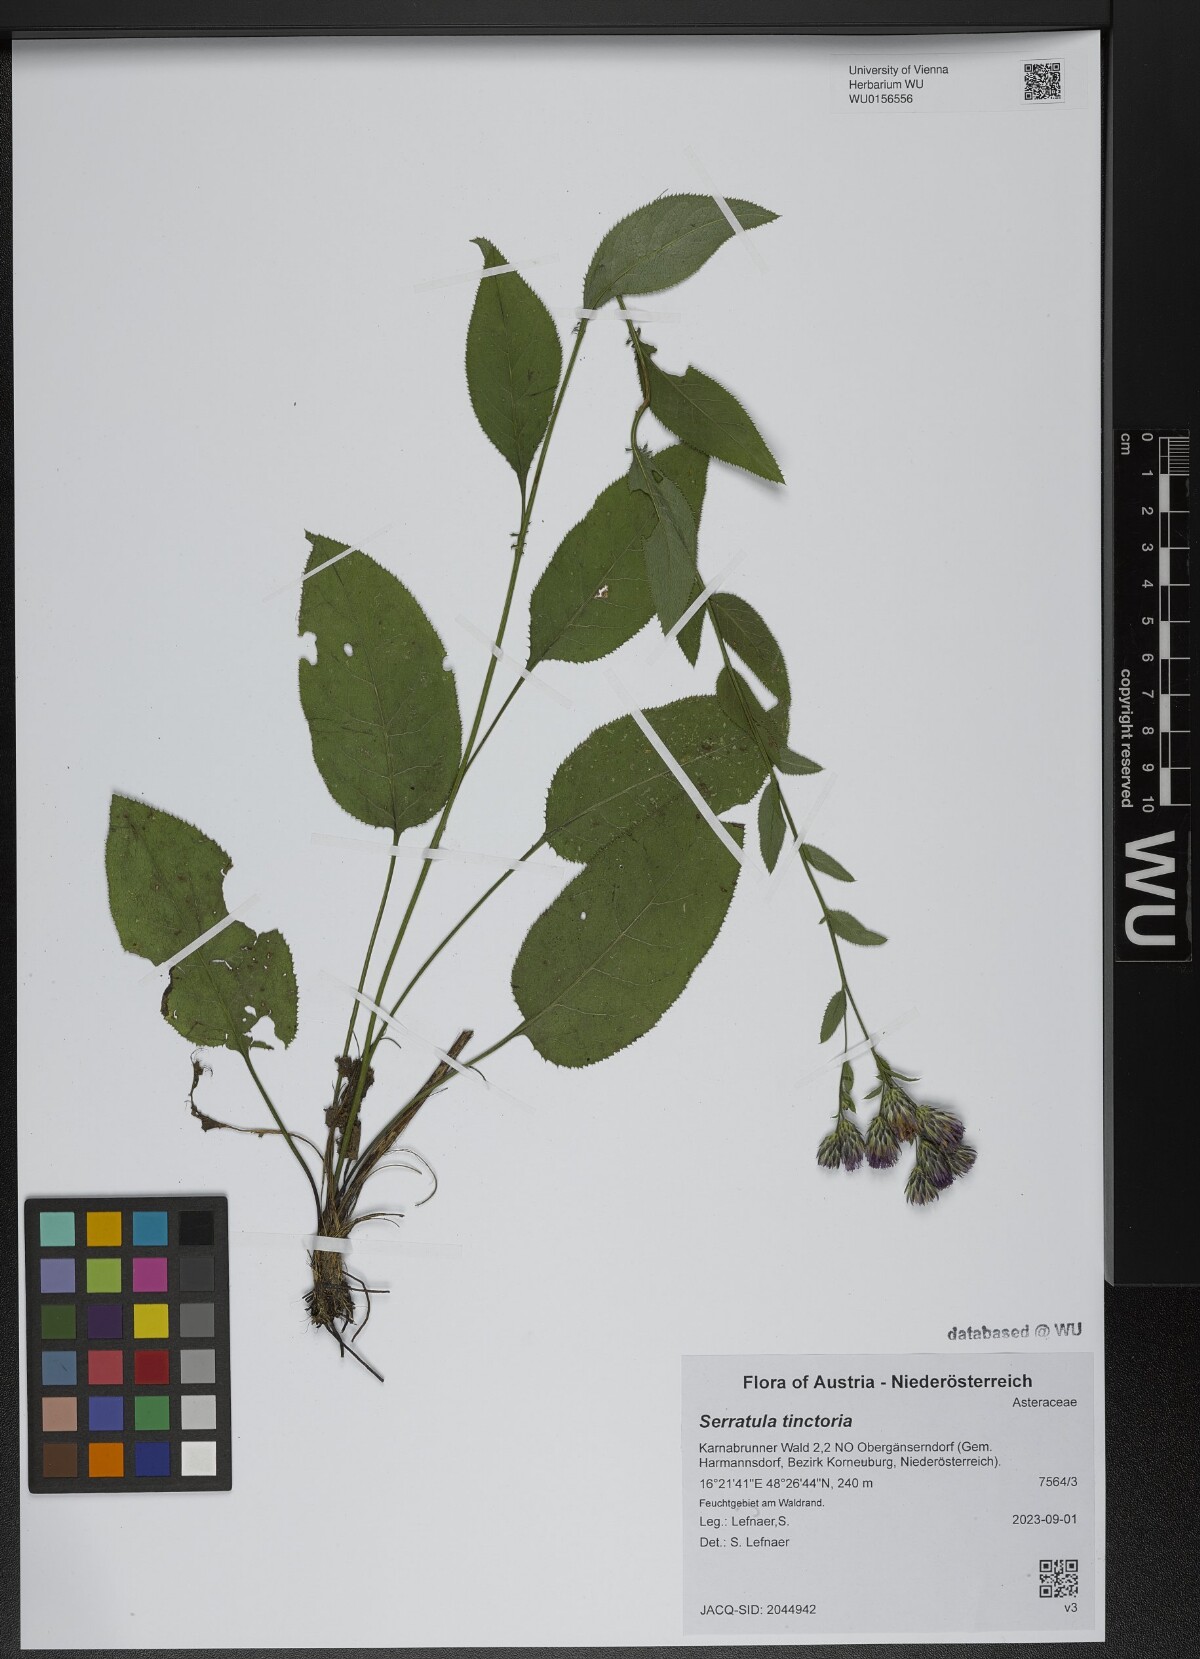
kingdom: Plantae
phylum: Tracheophyta
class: Magnoliopsida
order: Asterales
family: Asteraceae
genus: Serratula
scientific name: Serratula tinctoria
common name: Saw-wort
